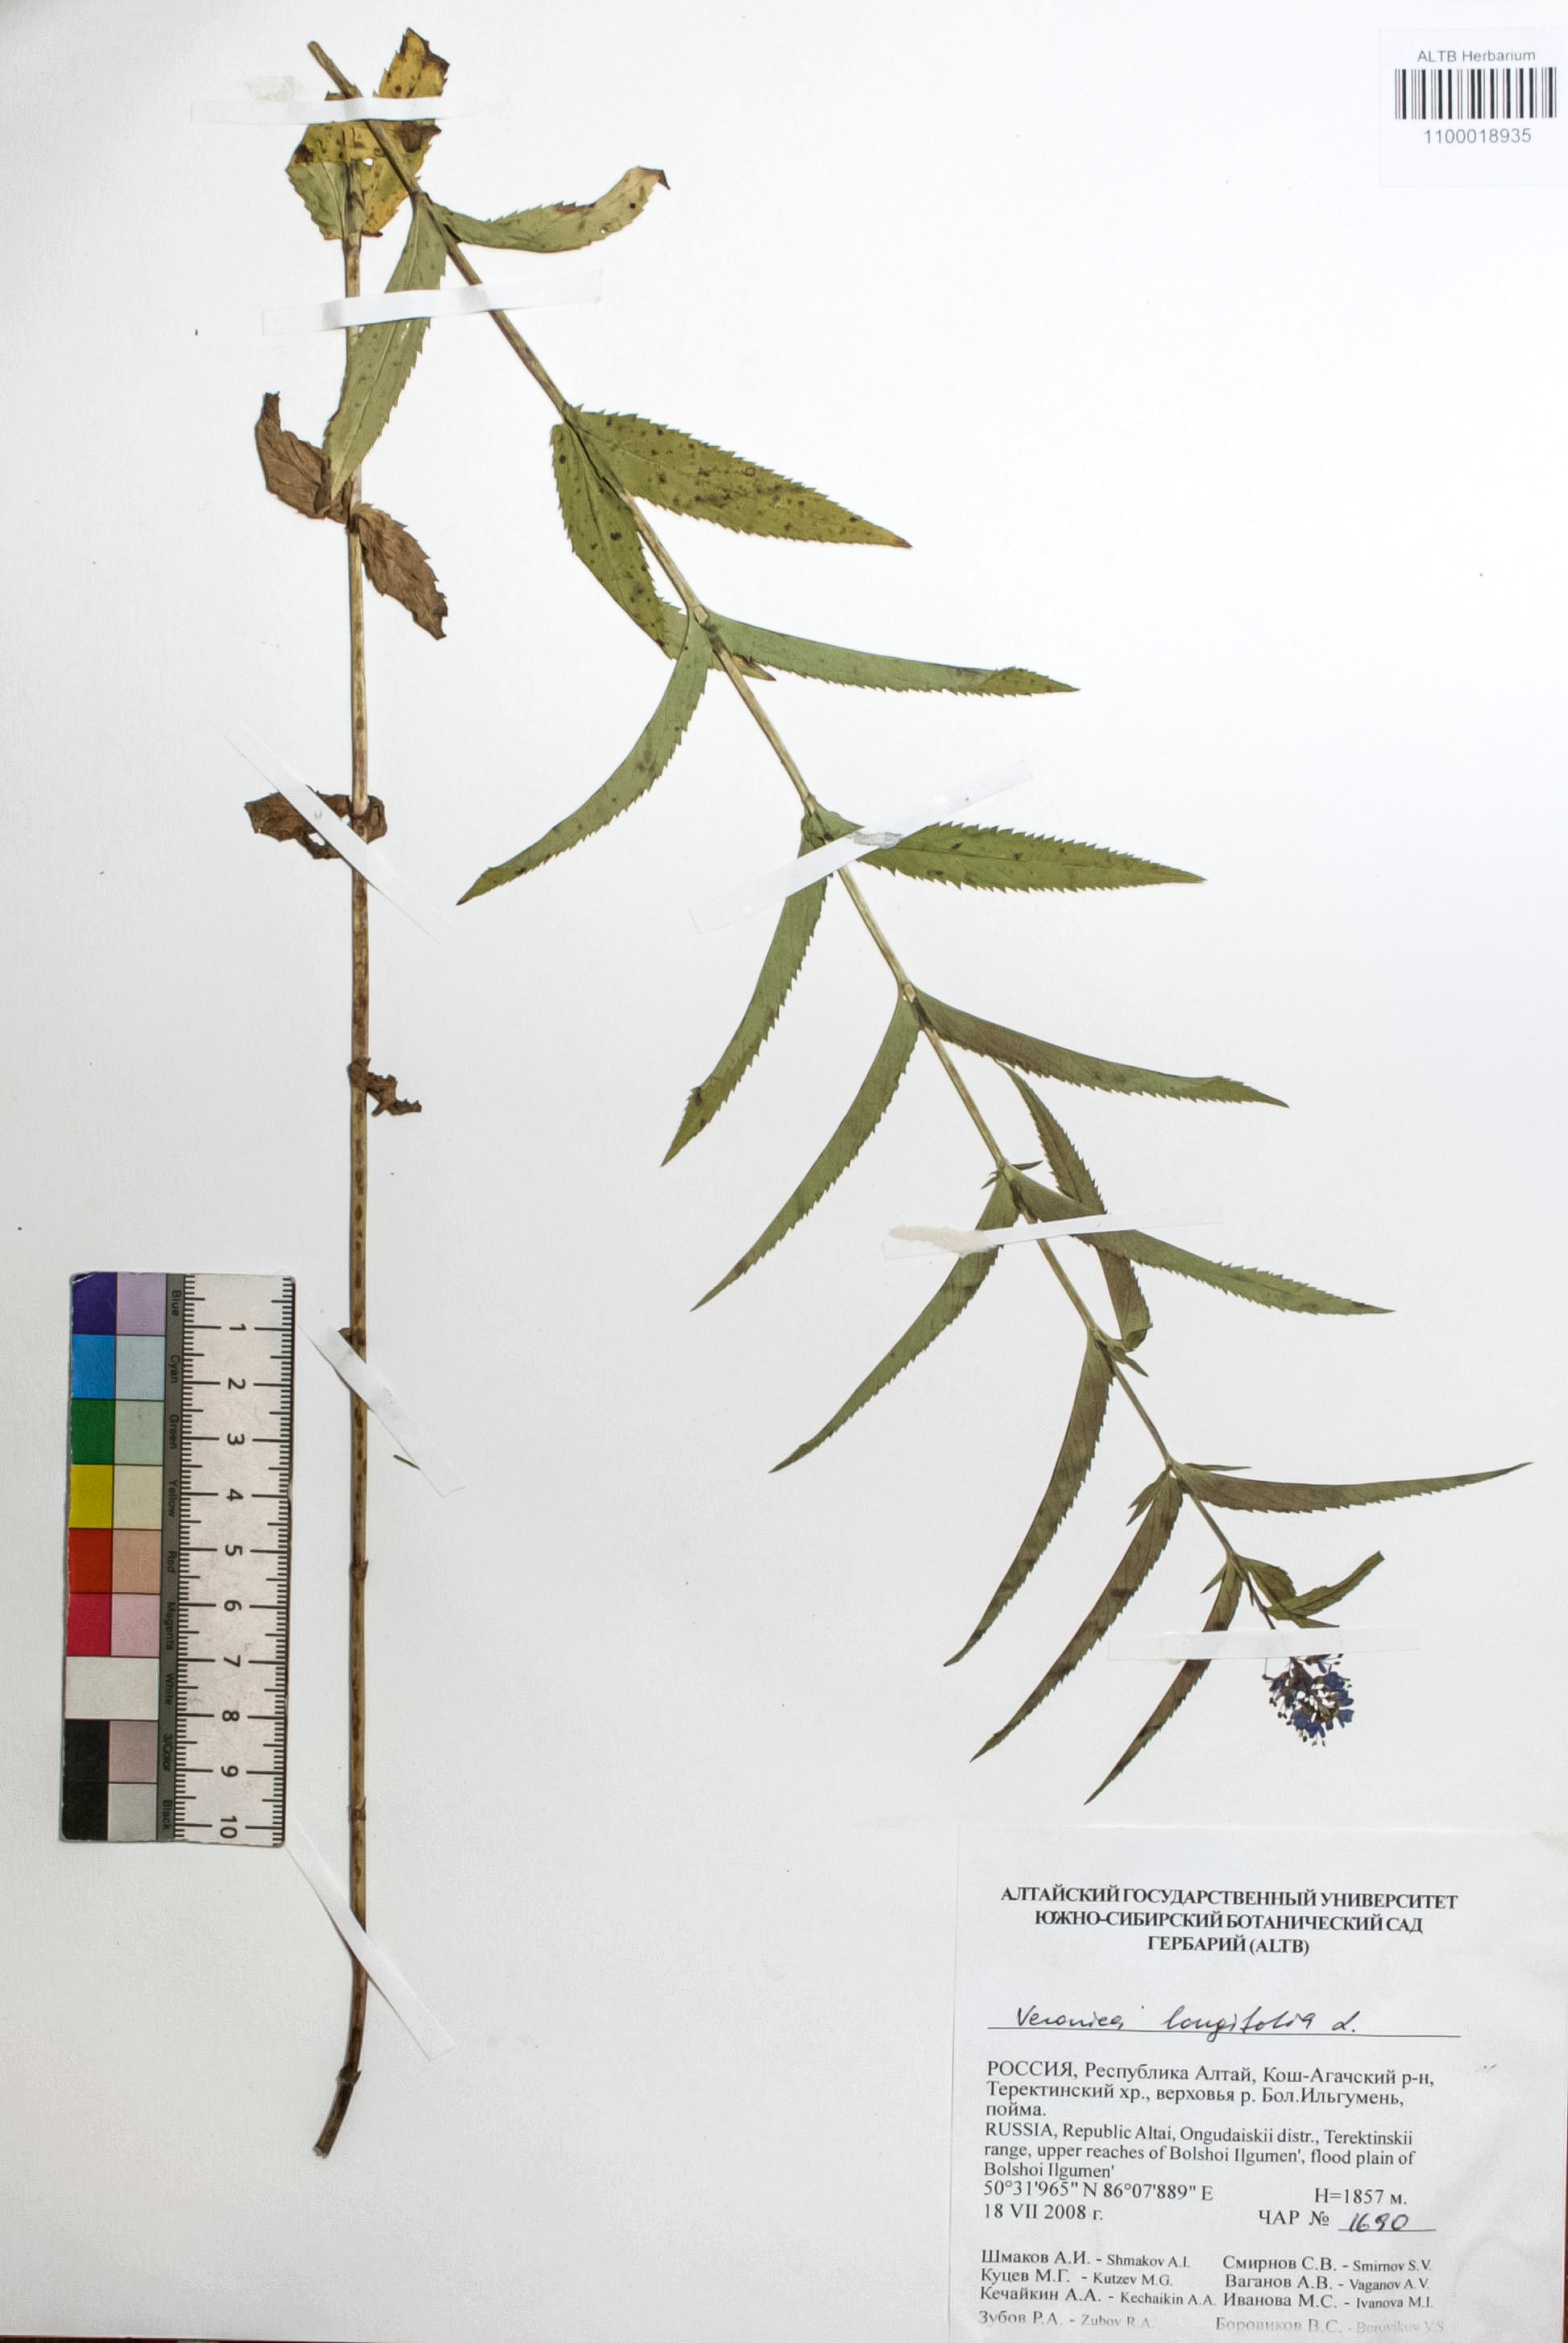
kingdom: Plantae
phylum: Tracheophyta
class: Magnoliopsida
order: Lamiales
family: Plantaginaceae
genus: Veronica
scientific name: Veronica longifolia
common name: Garden speedwell
